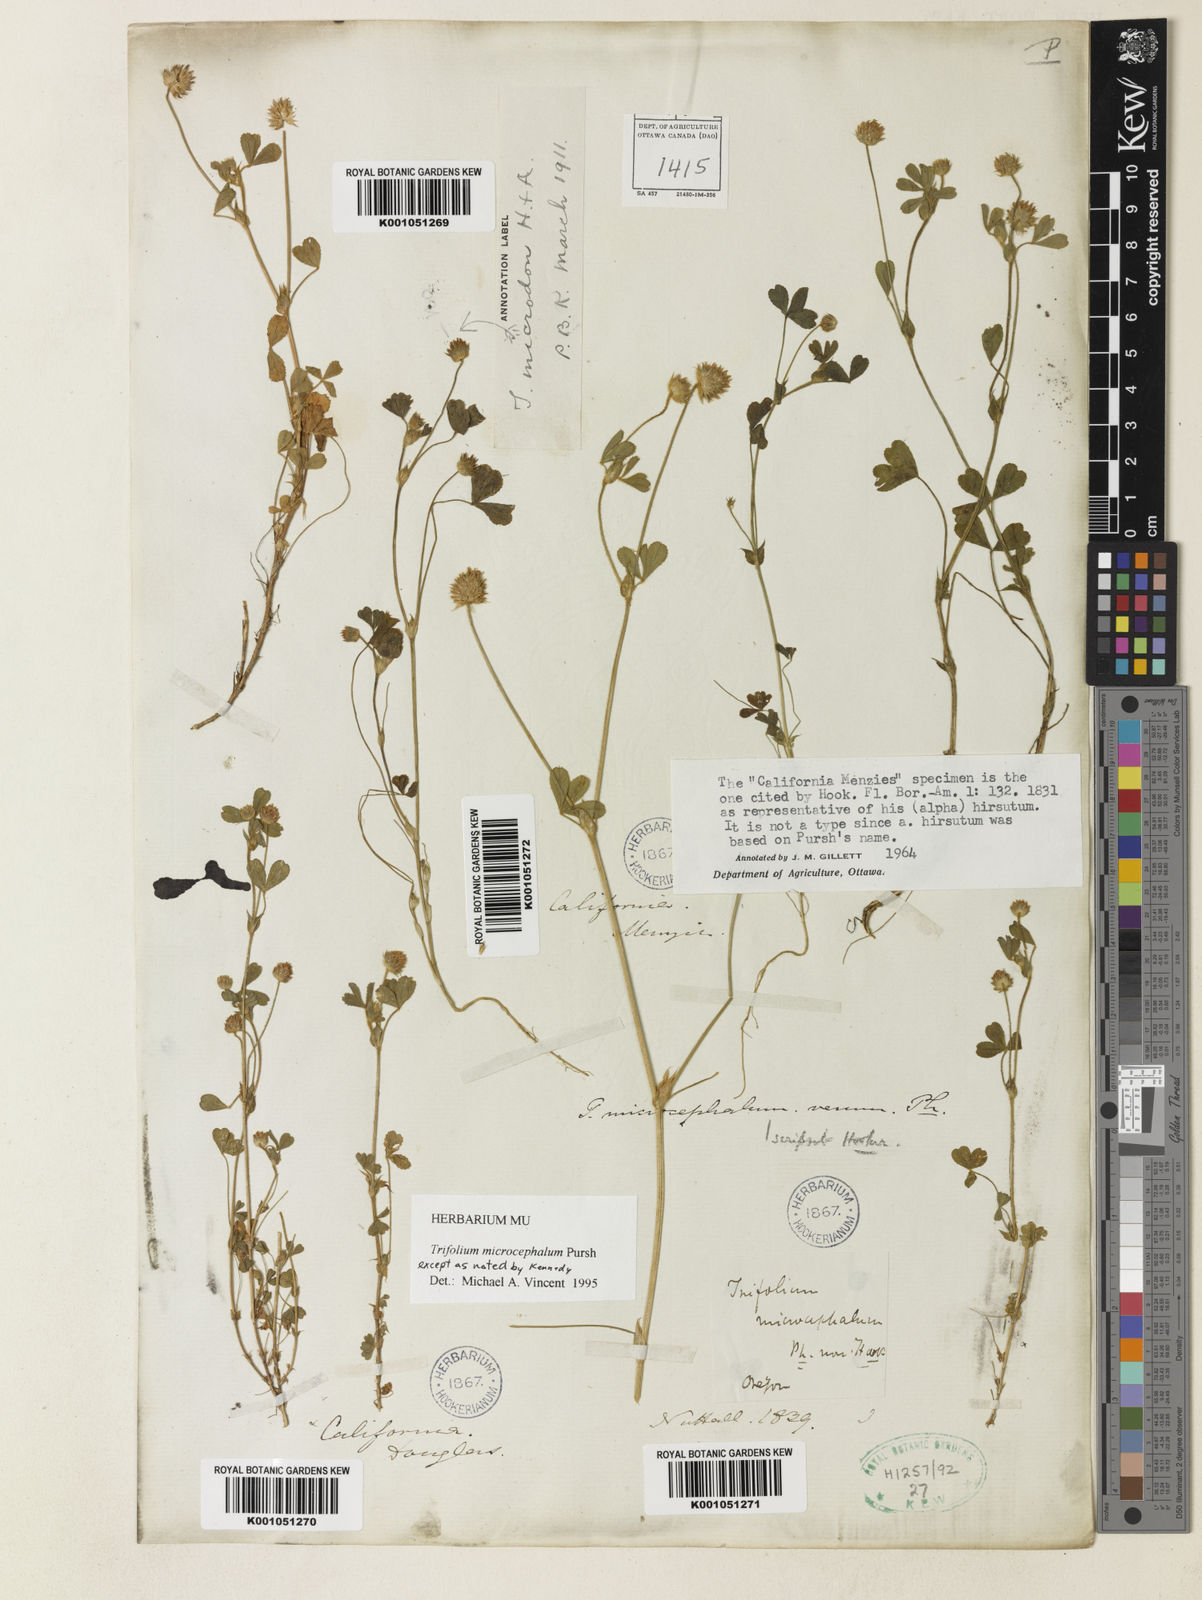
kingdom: Plantae
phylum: Tracheophyta
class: Magnoliopsida
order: Fabales
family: Fabaceae
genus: Trifolium
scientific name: Trifolium microcephalum
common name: Maiden clover
